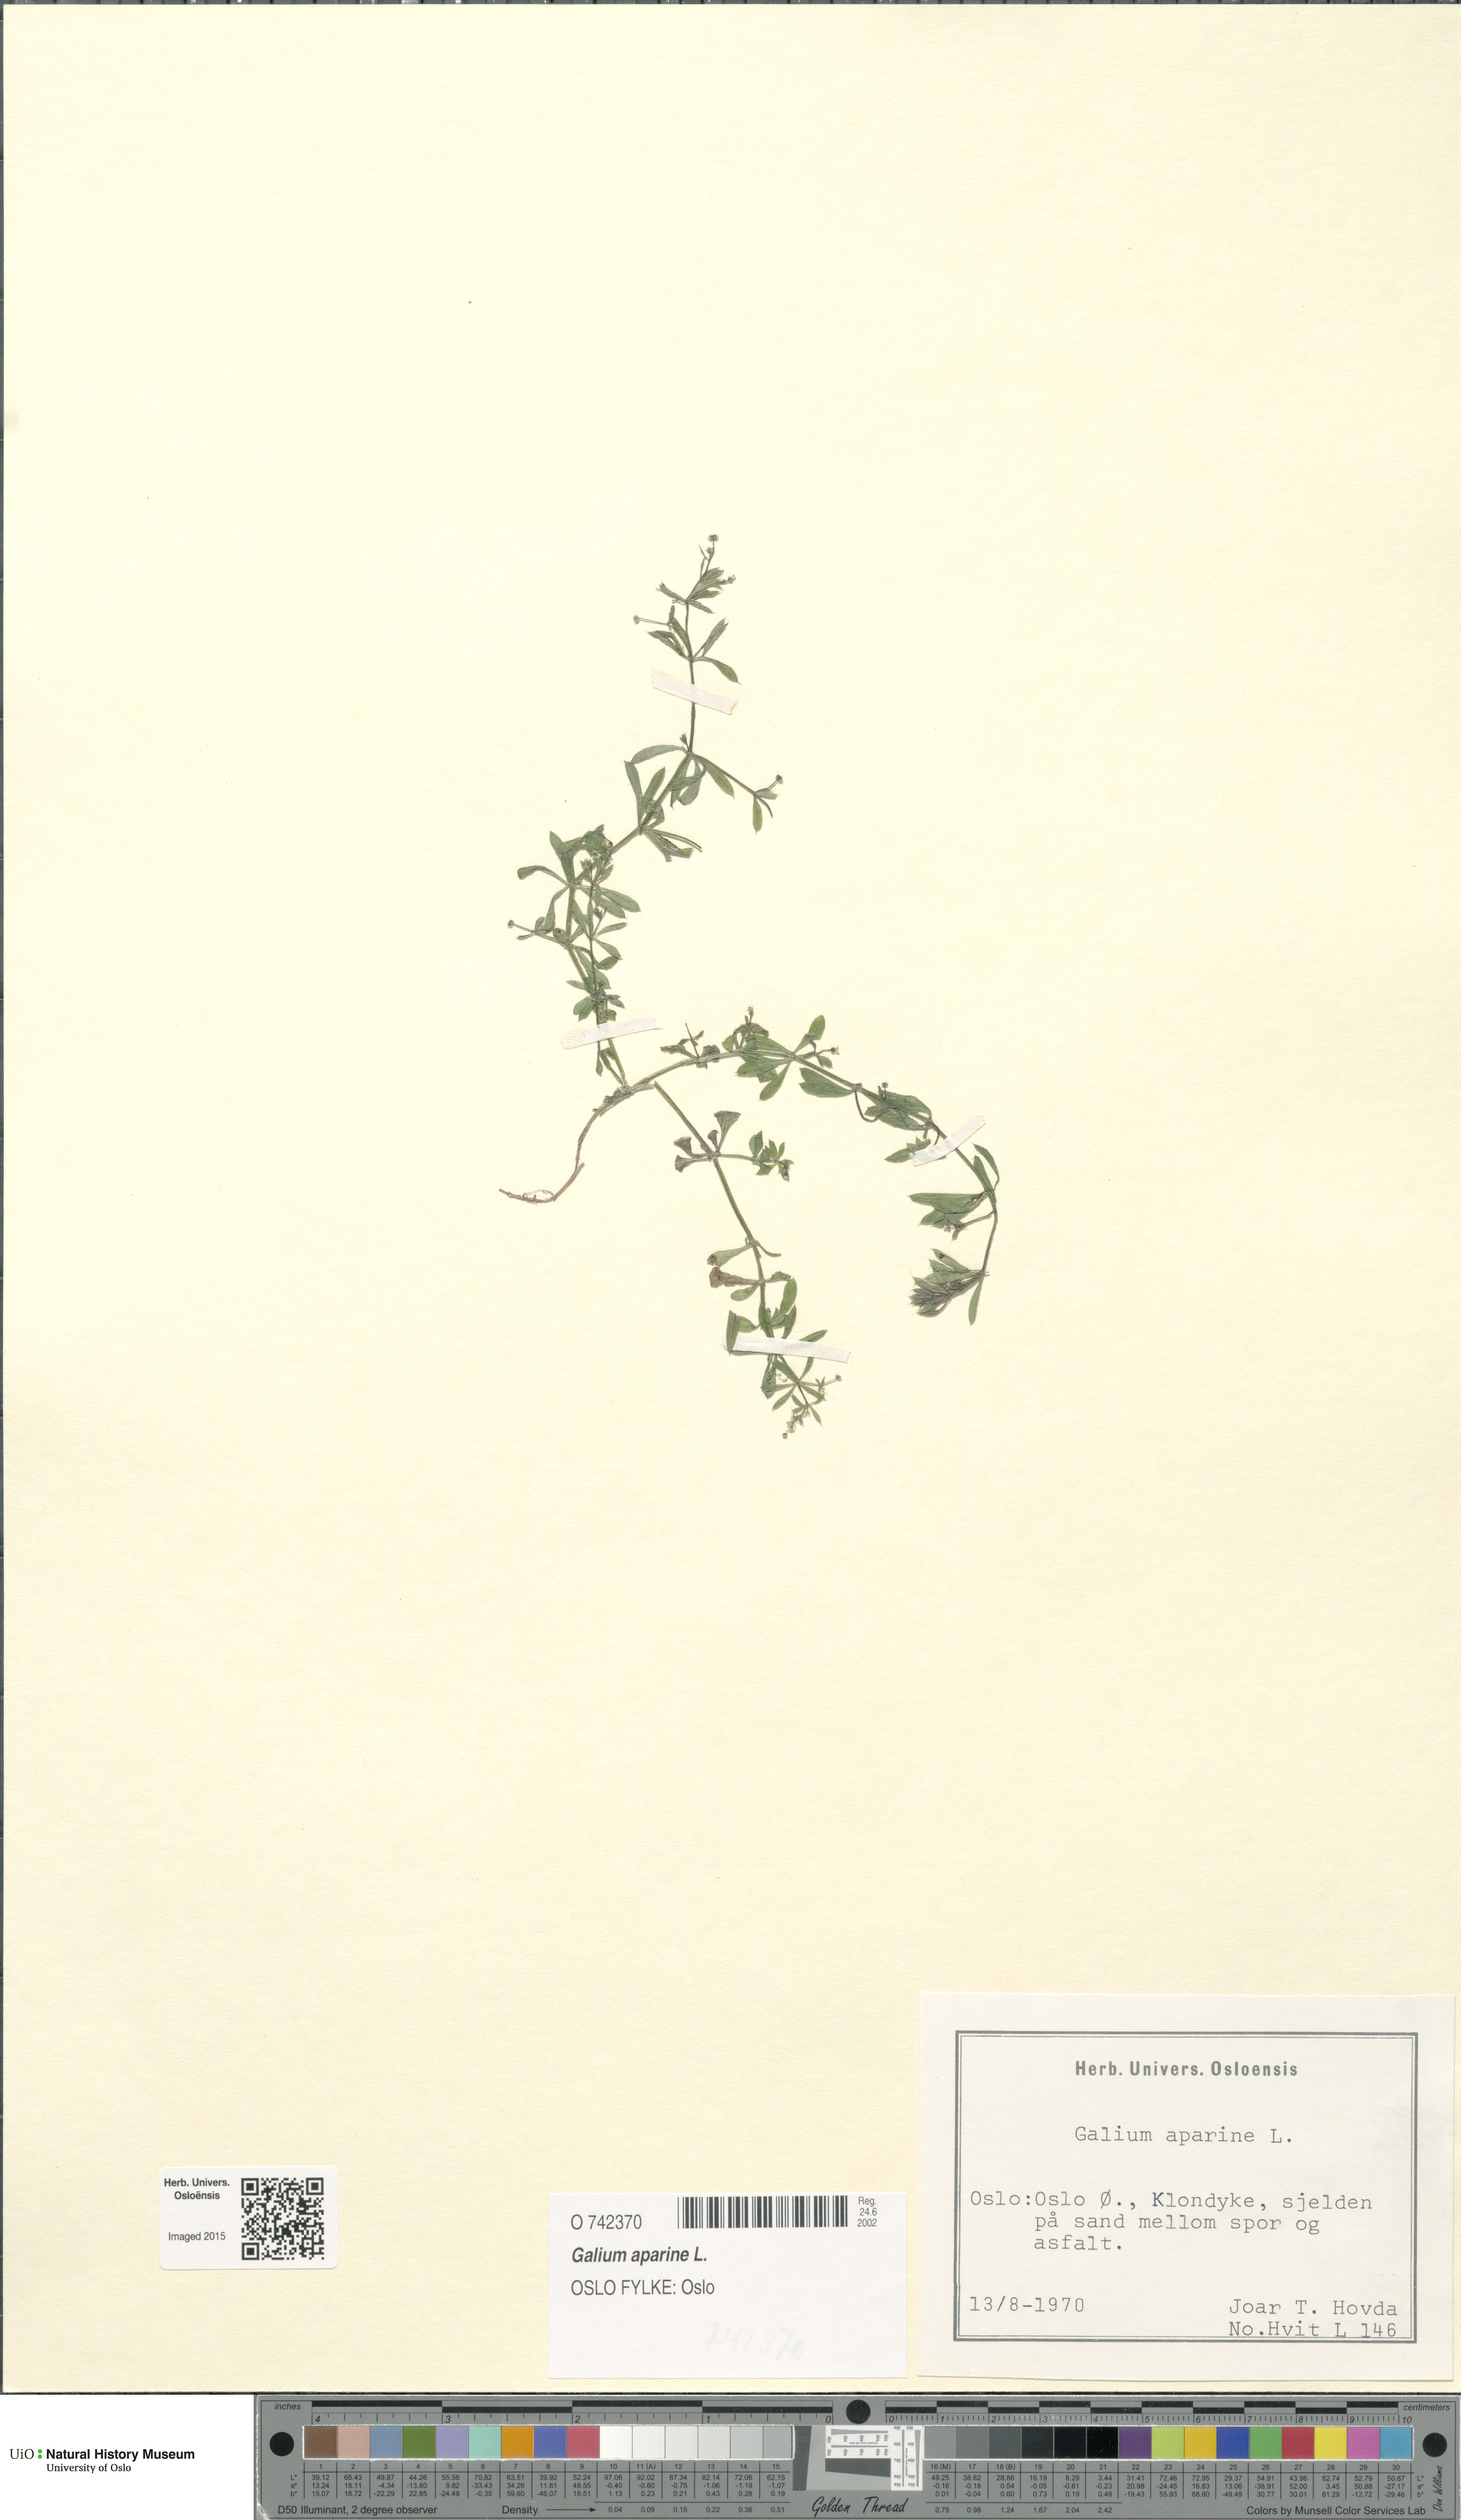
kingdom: Plantae
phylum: Tracheophyta
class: Magnoliopsida
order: Gentianales
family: Rubiaceae
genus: Galium
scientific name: Galium aparine
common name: Cleavers
